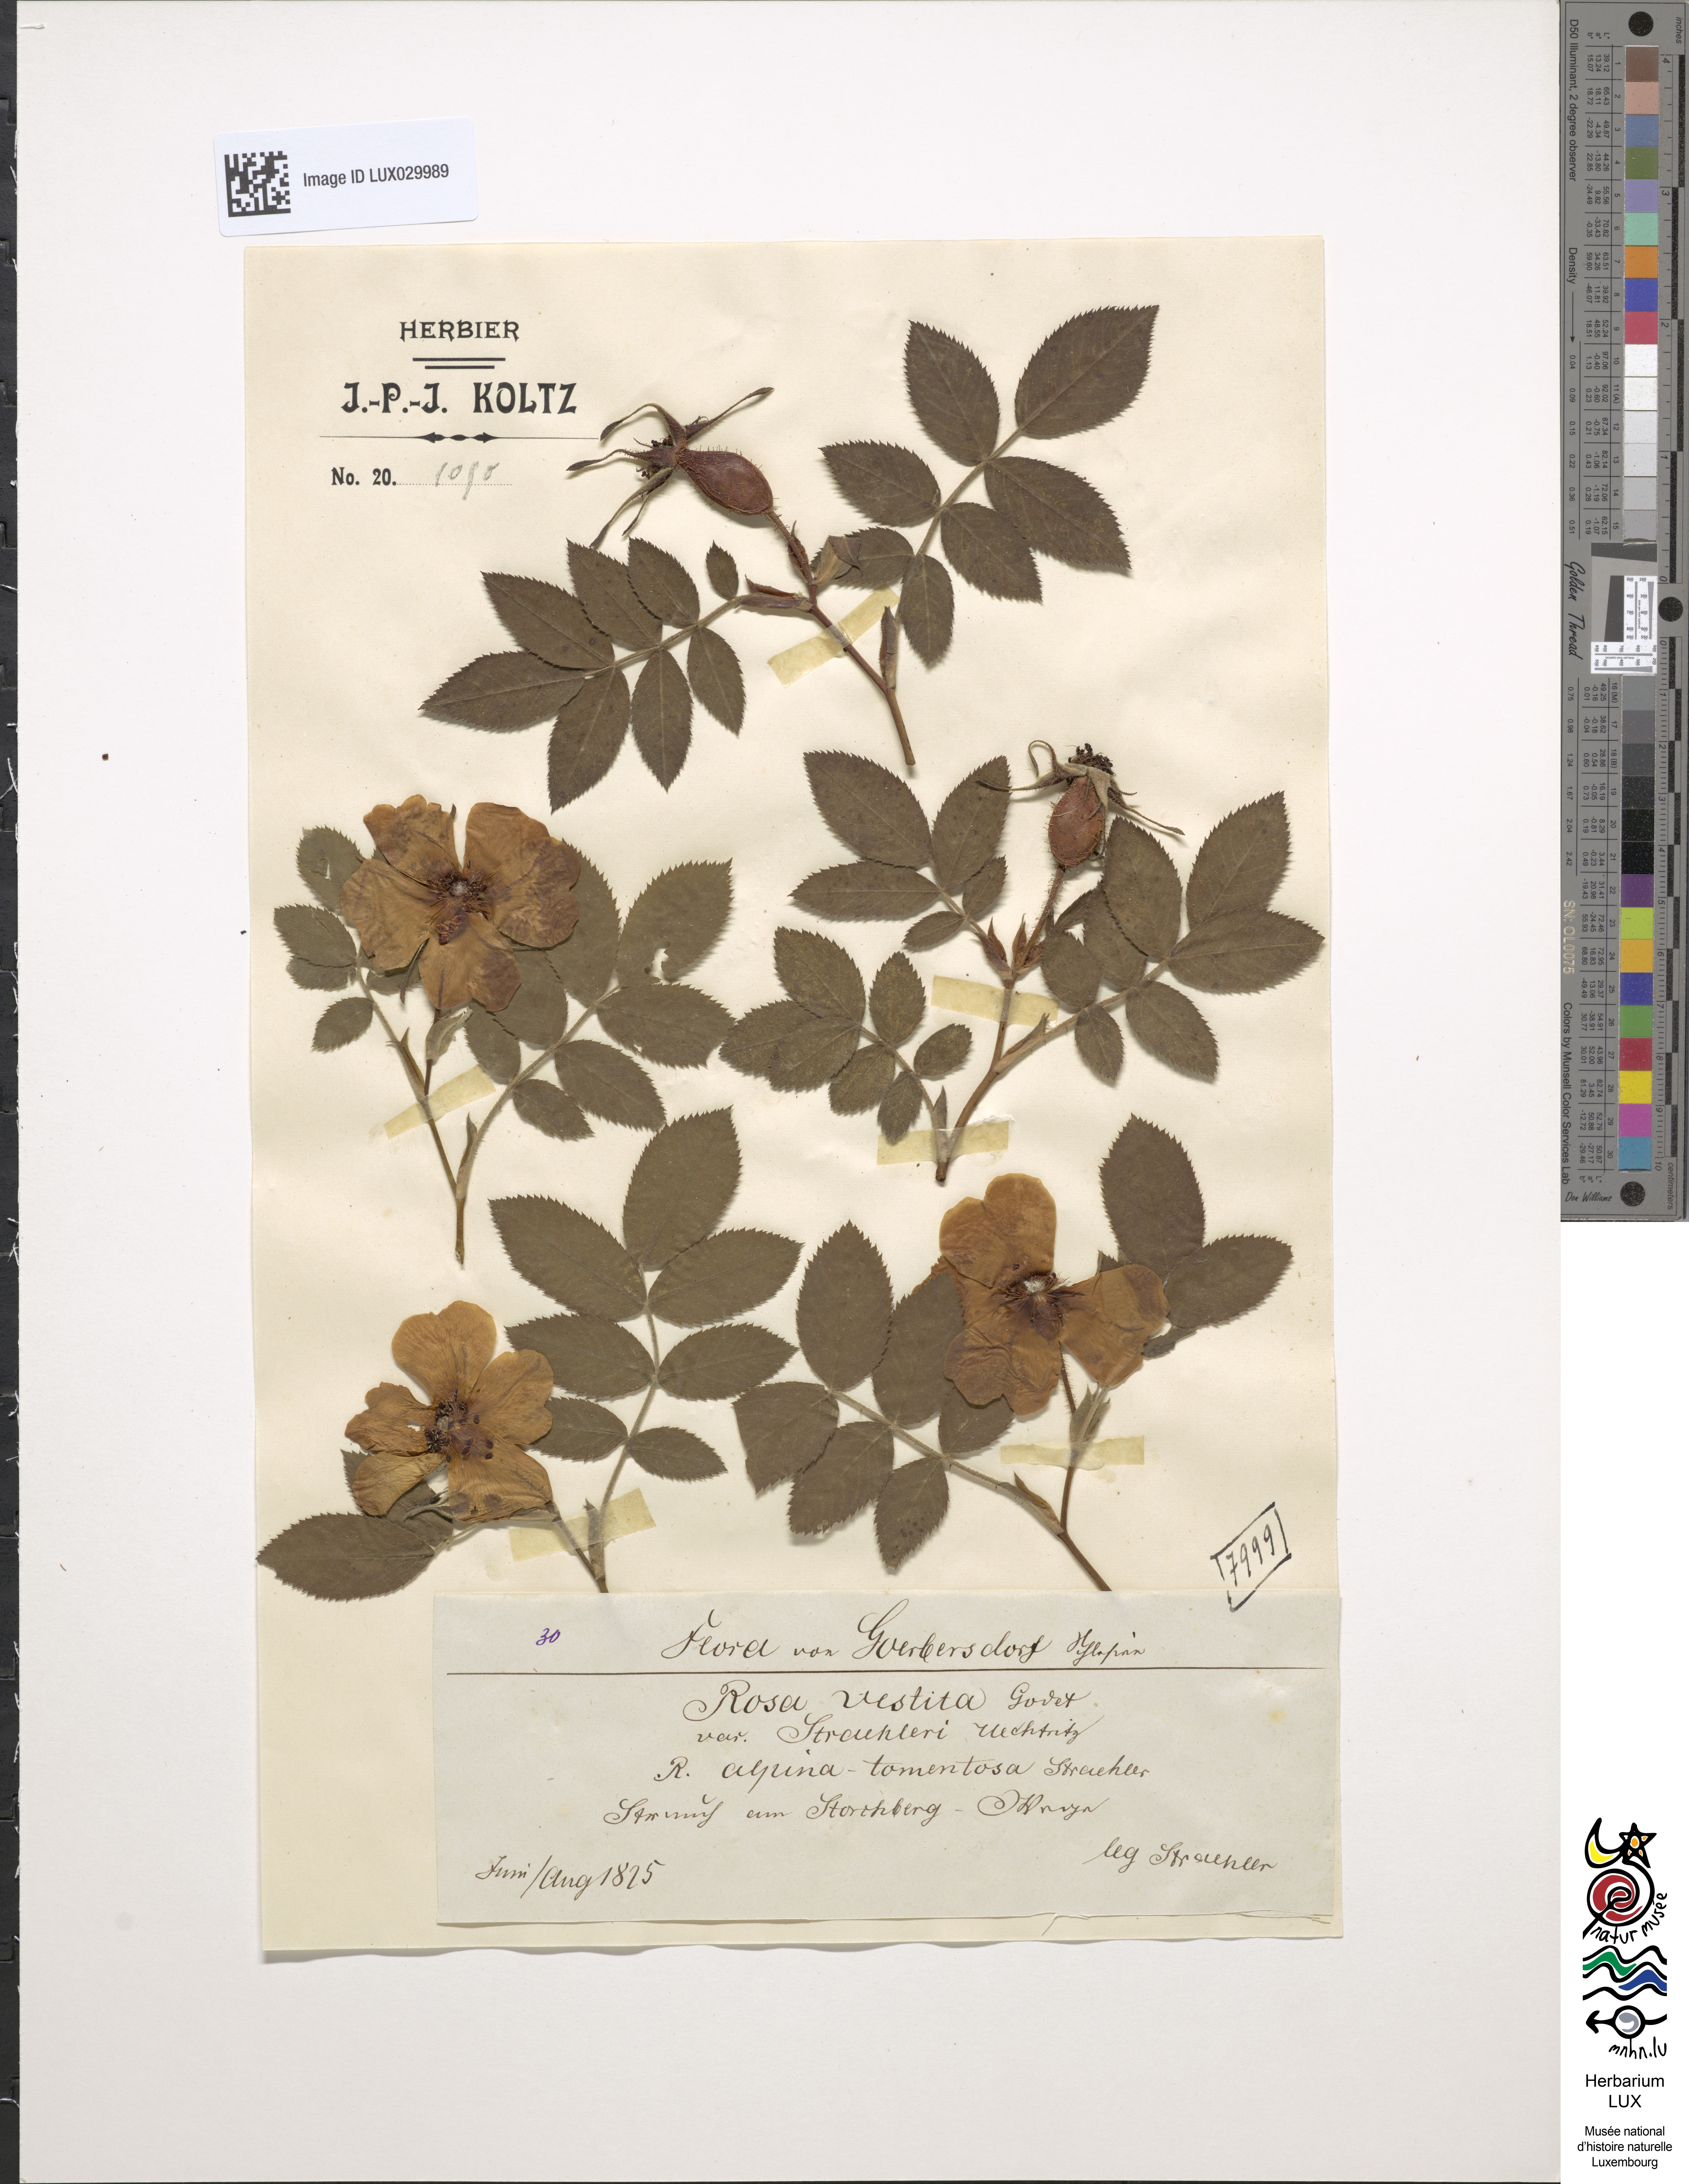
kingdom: Plantae
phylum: Tracheophyta
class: Magnoliopsida
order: Rosales
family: Rosaceae
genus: Rosa
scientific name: Rosa spinulifolia
